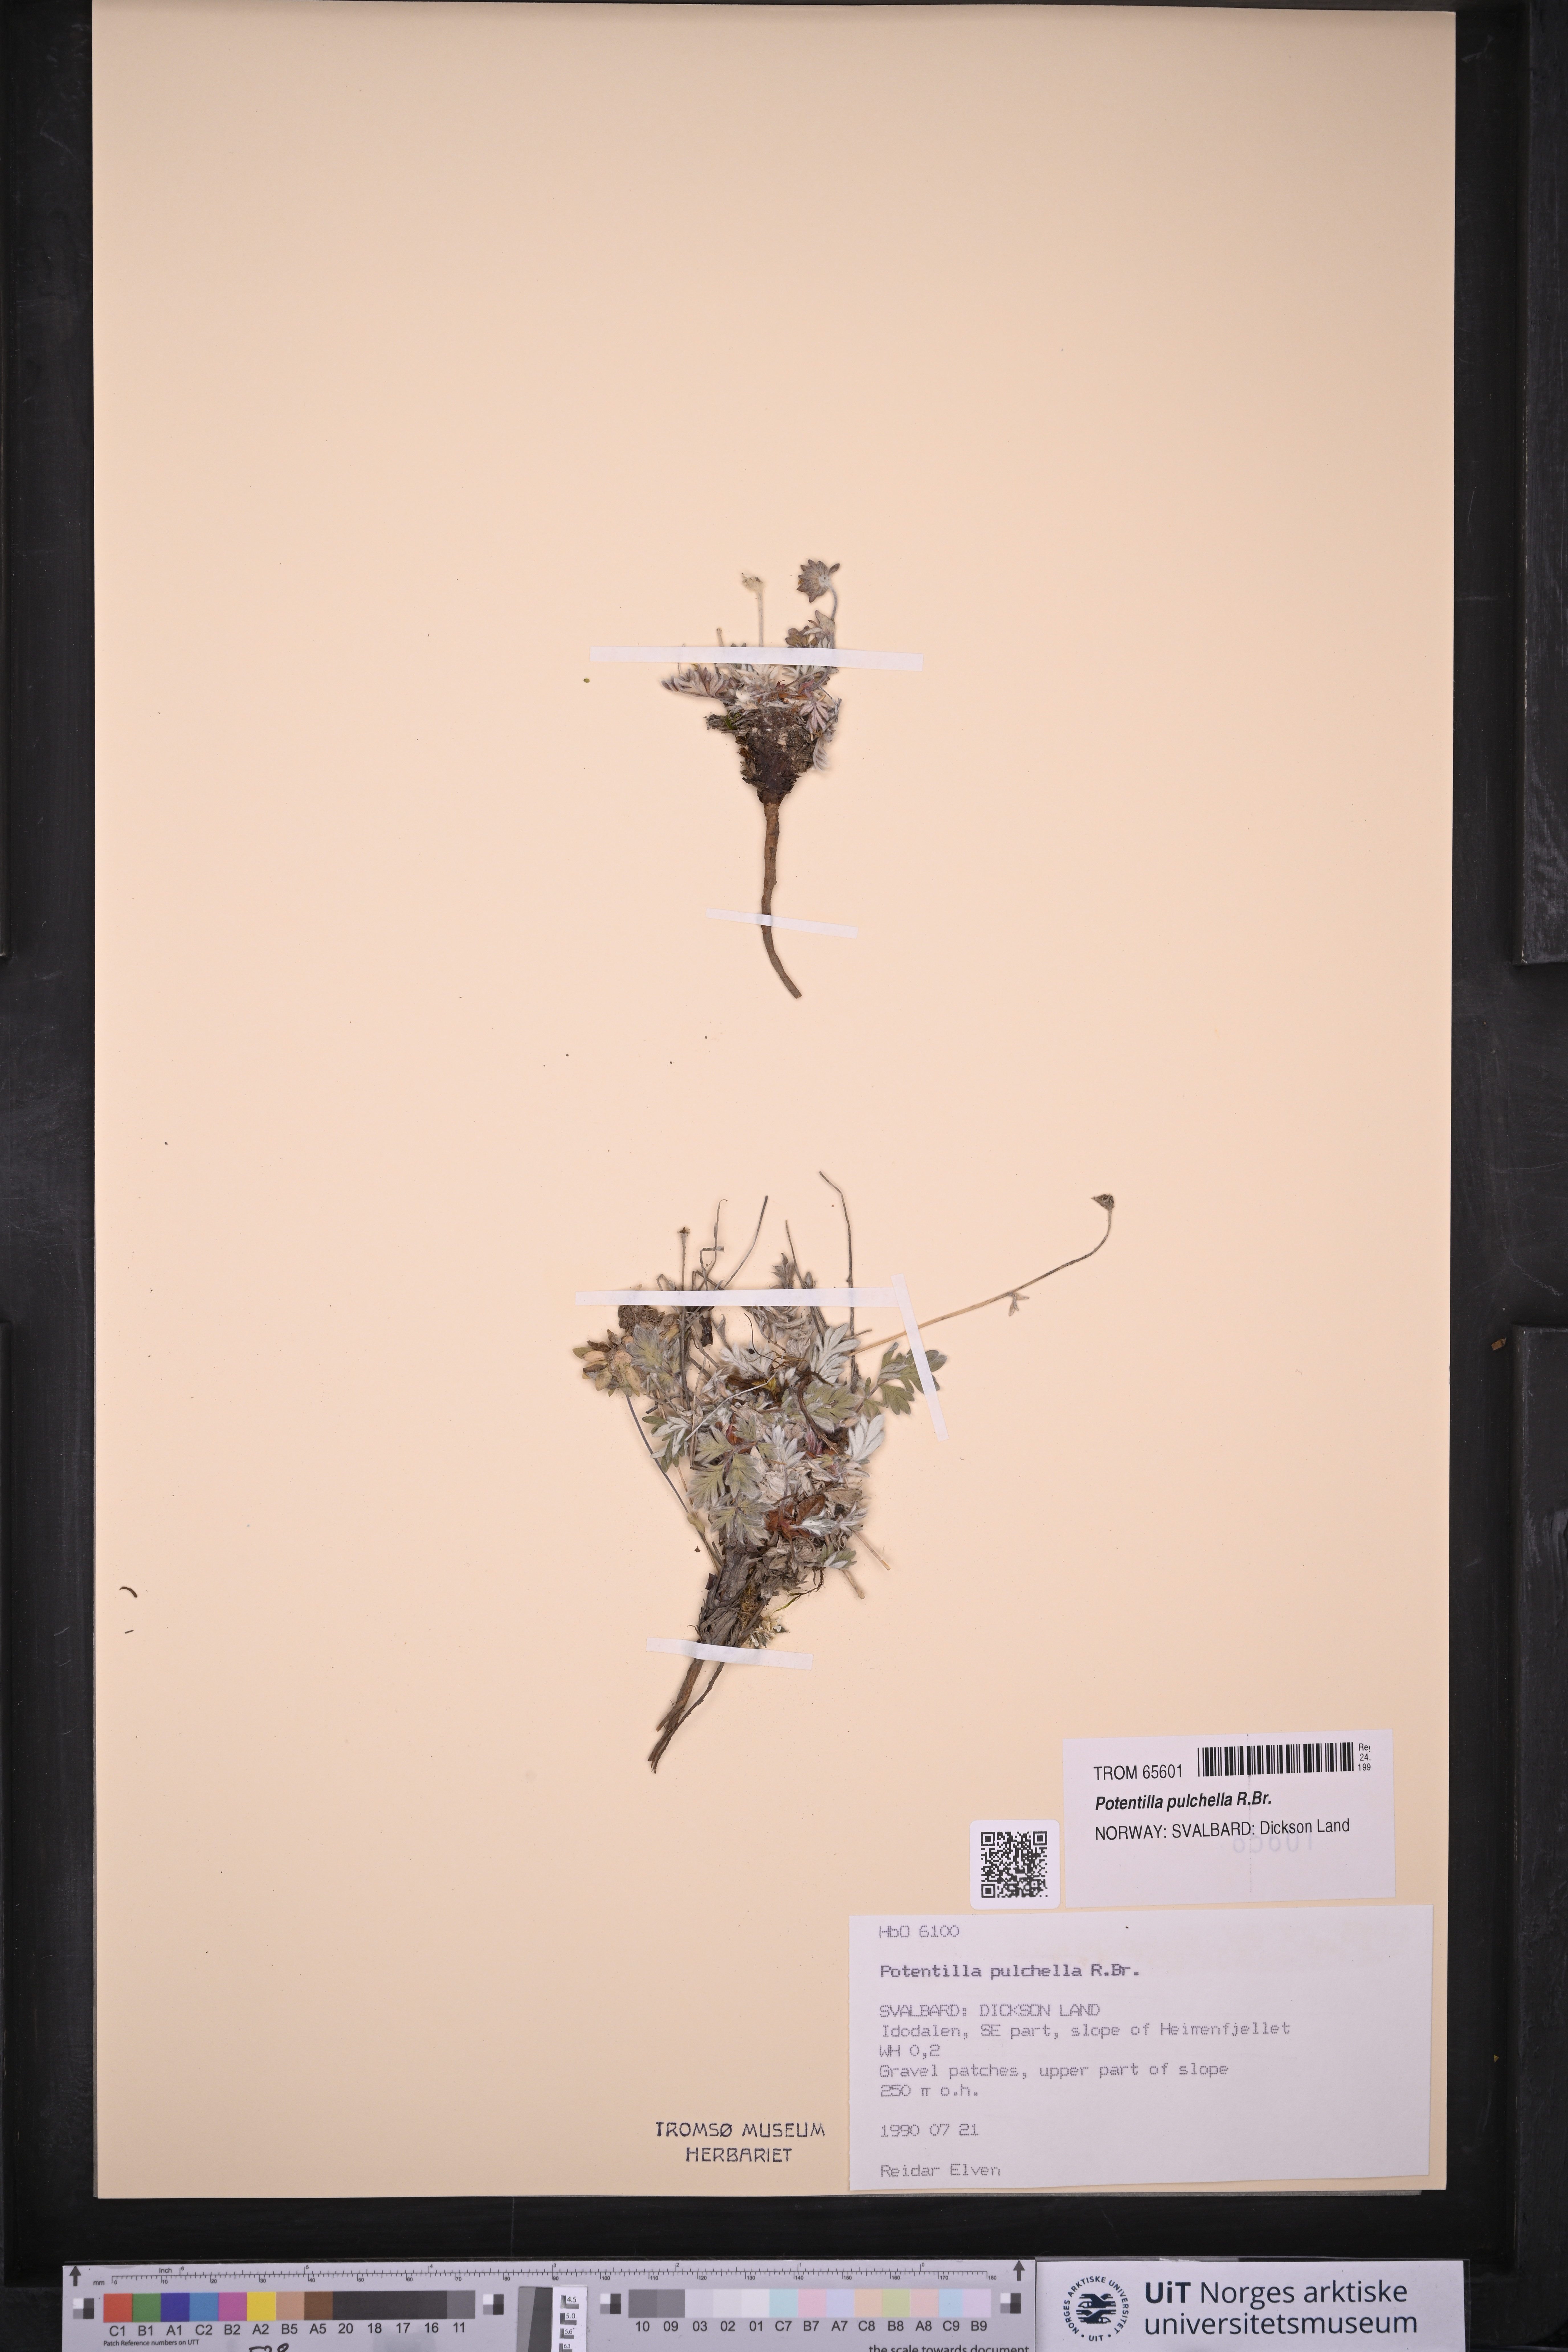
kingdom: Plantae
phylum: Tracheophyta
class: Magnoliopsida
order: Rosales
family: Rosaceae
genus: Potentilla
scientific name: Potentilla pulchella
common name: Pretty cinquefoil
